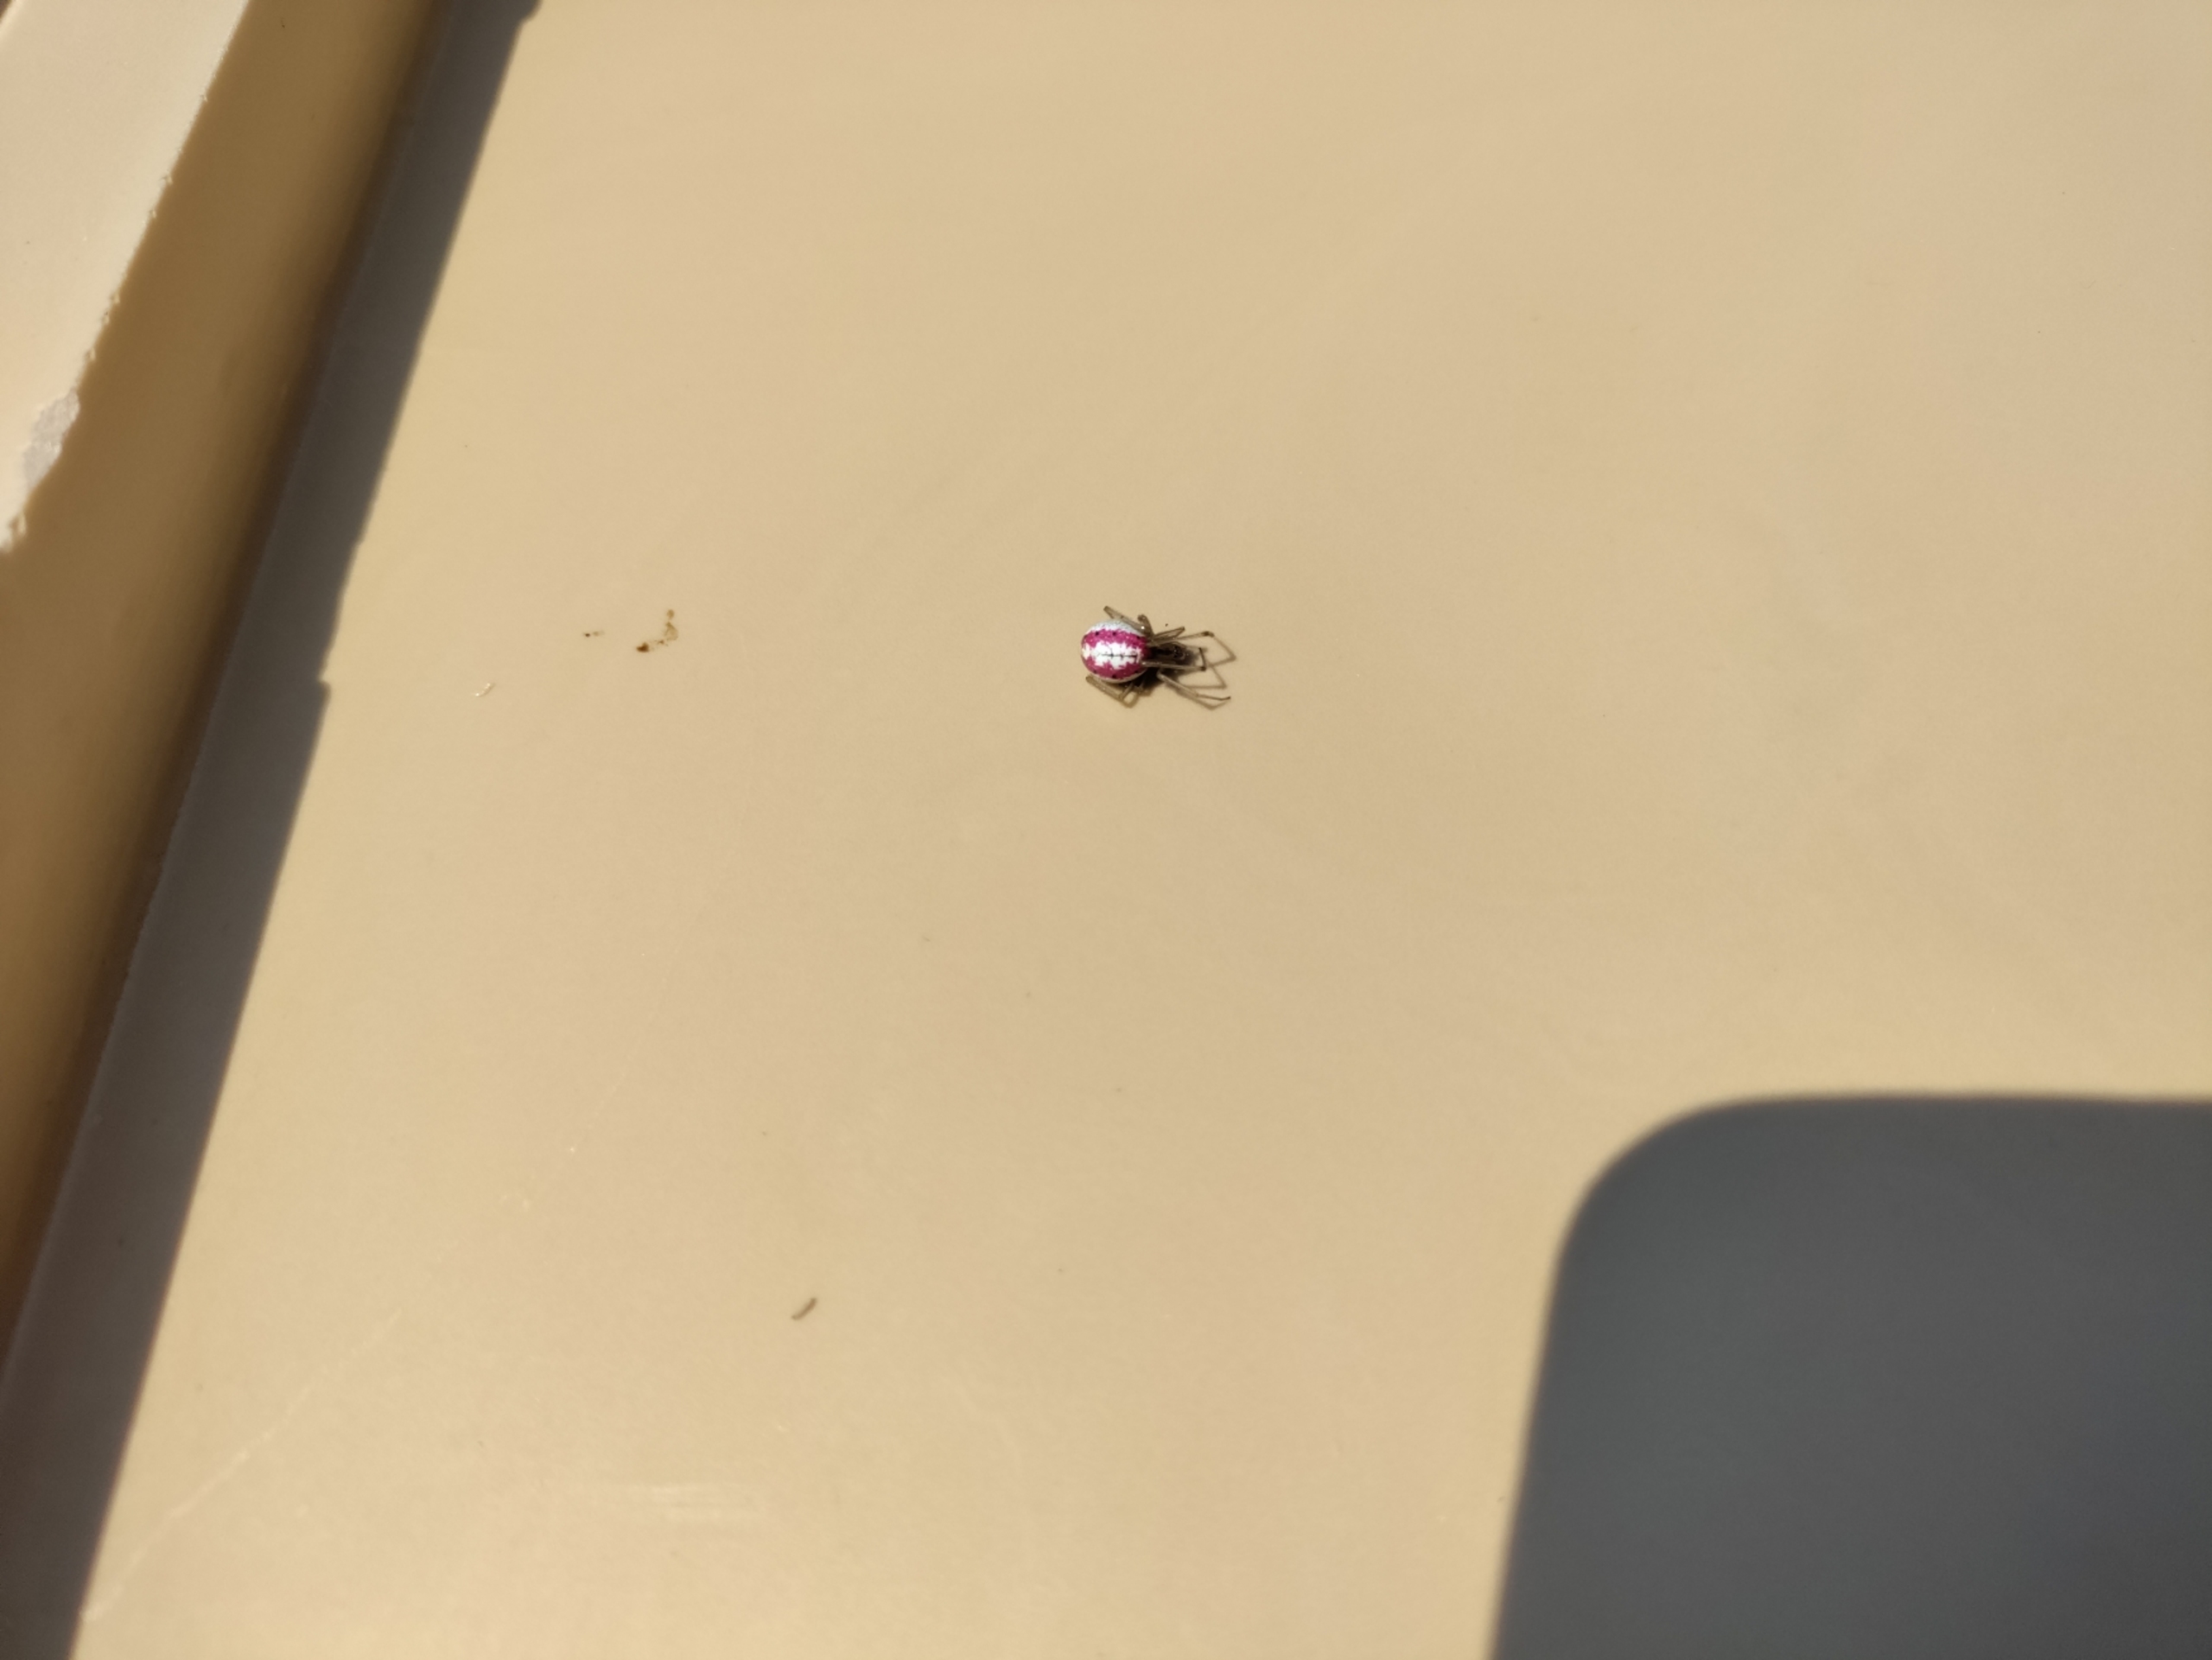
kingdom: Animalia
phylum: Arthropoda
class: Arachnida
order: Araneae
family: Theridiidae
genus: Enoplognatha
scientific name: Enoplognatha
